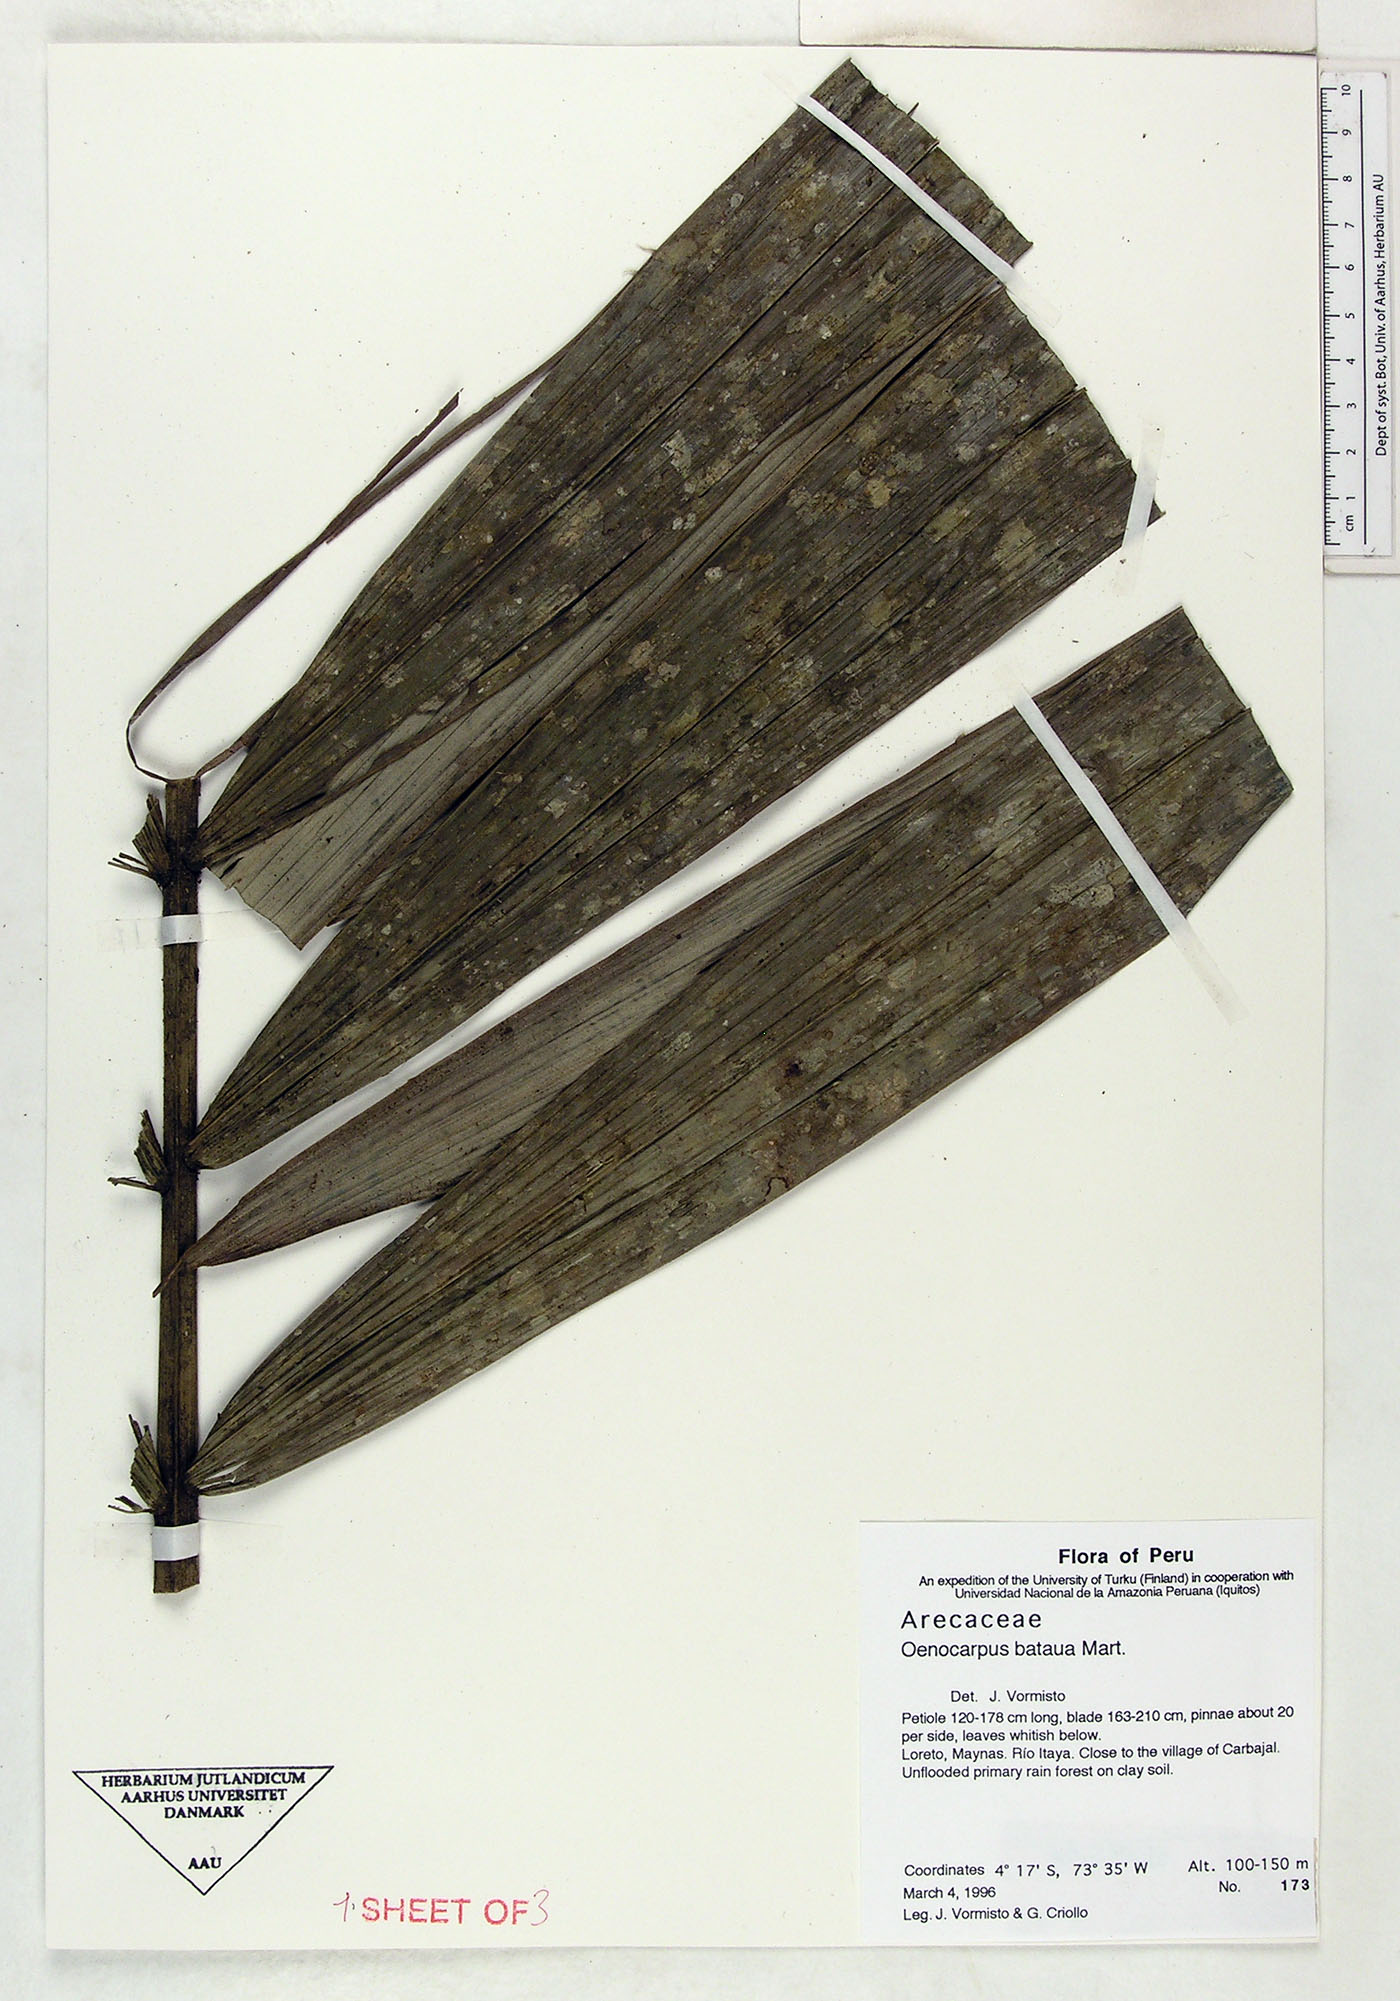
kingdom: Plantae
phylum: Tracheophyta
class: Liliopsida
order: Arecales
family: Arecaceae
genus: Oenocarpus
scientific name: Oenocarpus bataua
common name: Bataua palm
